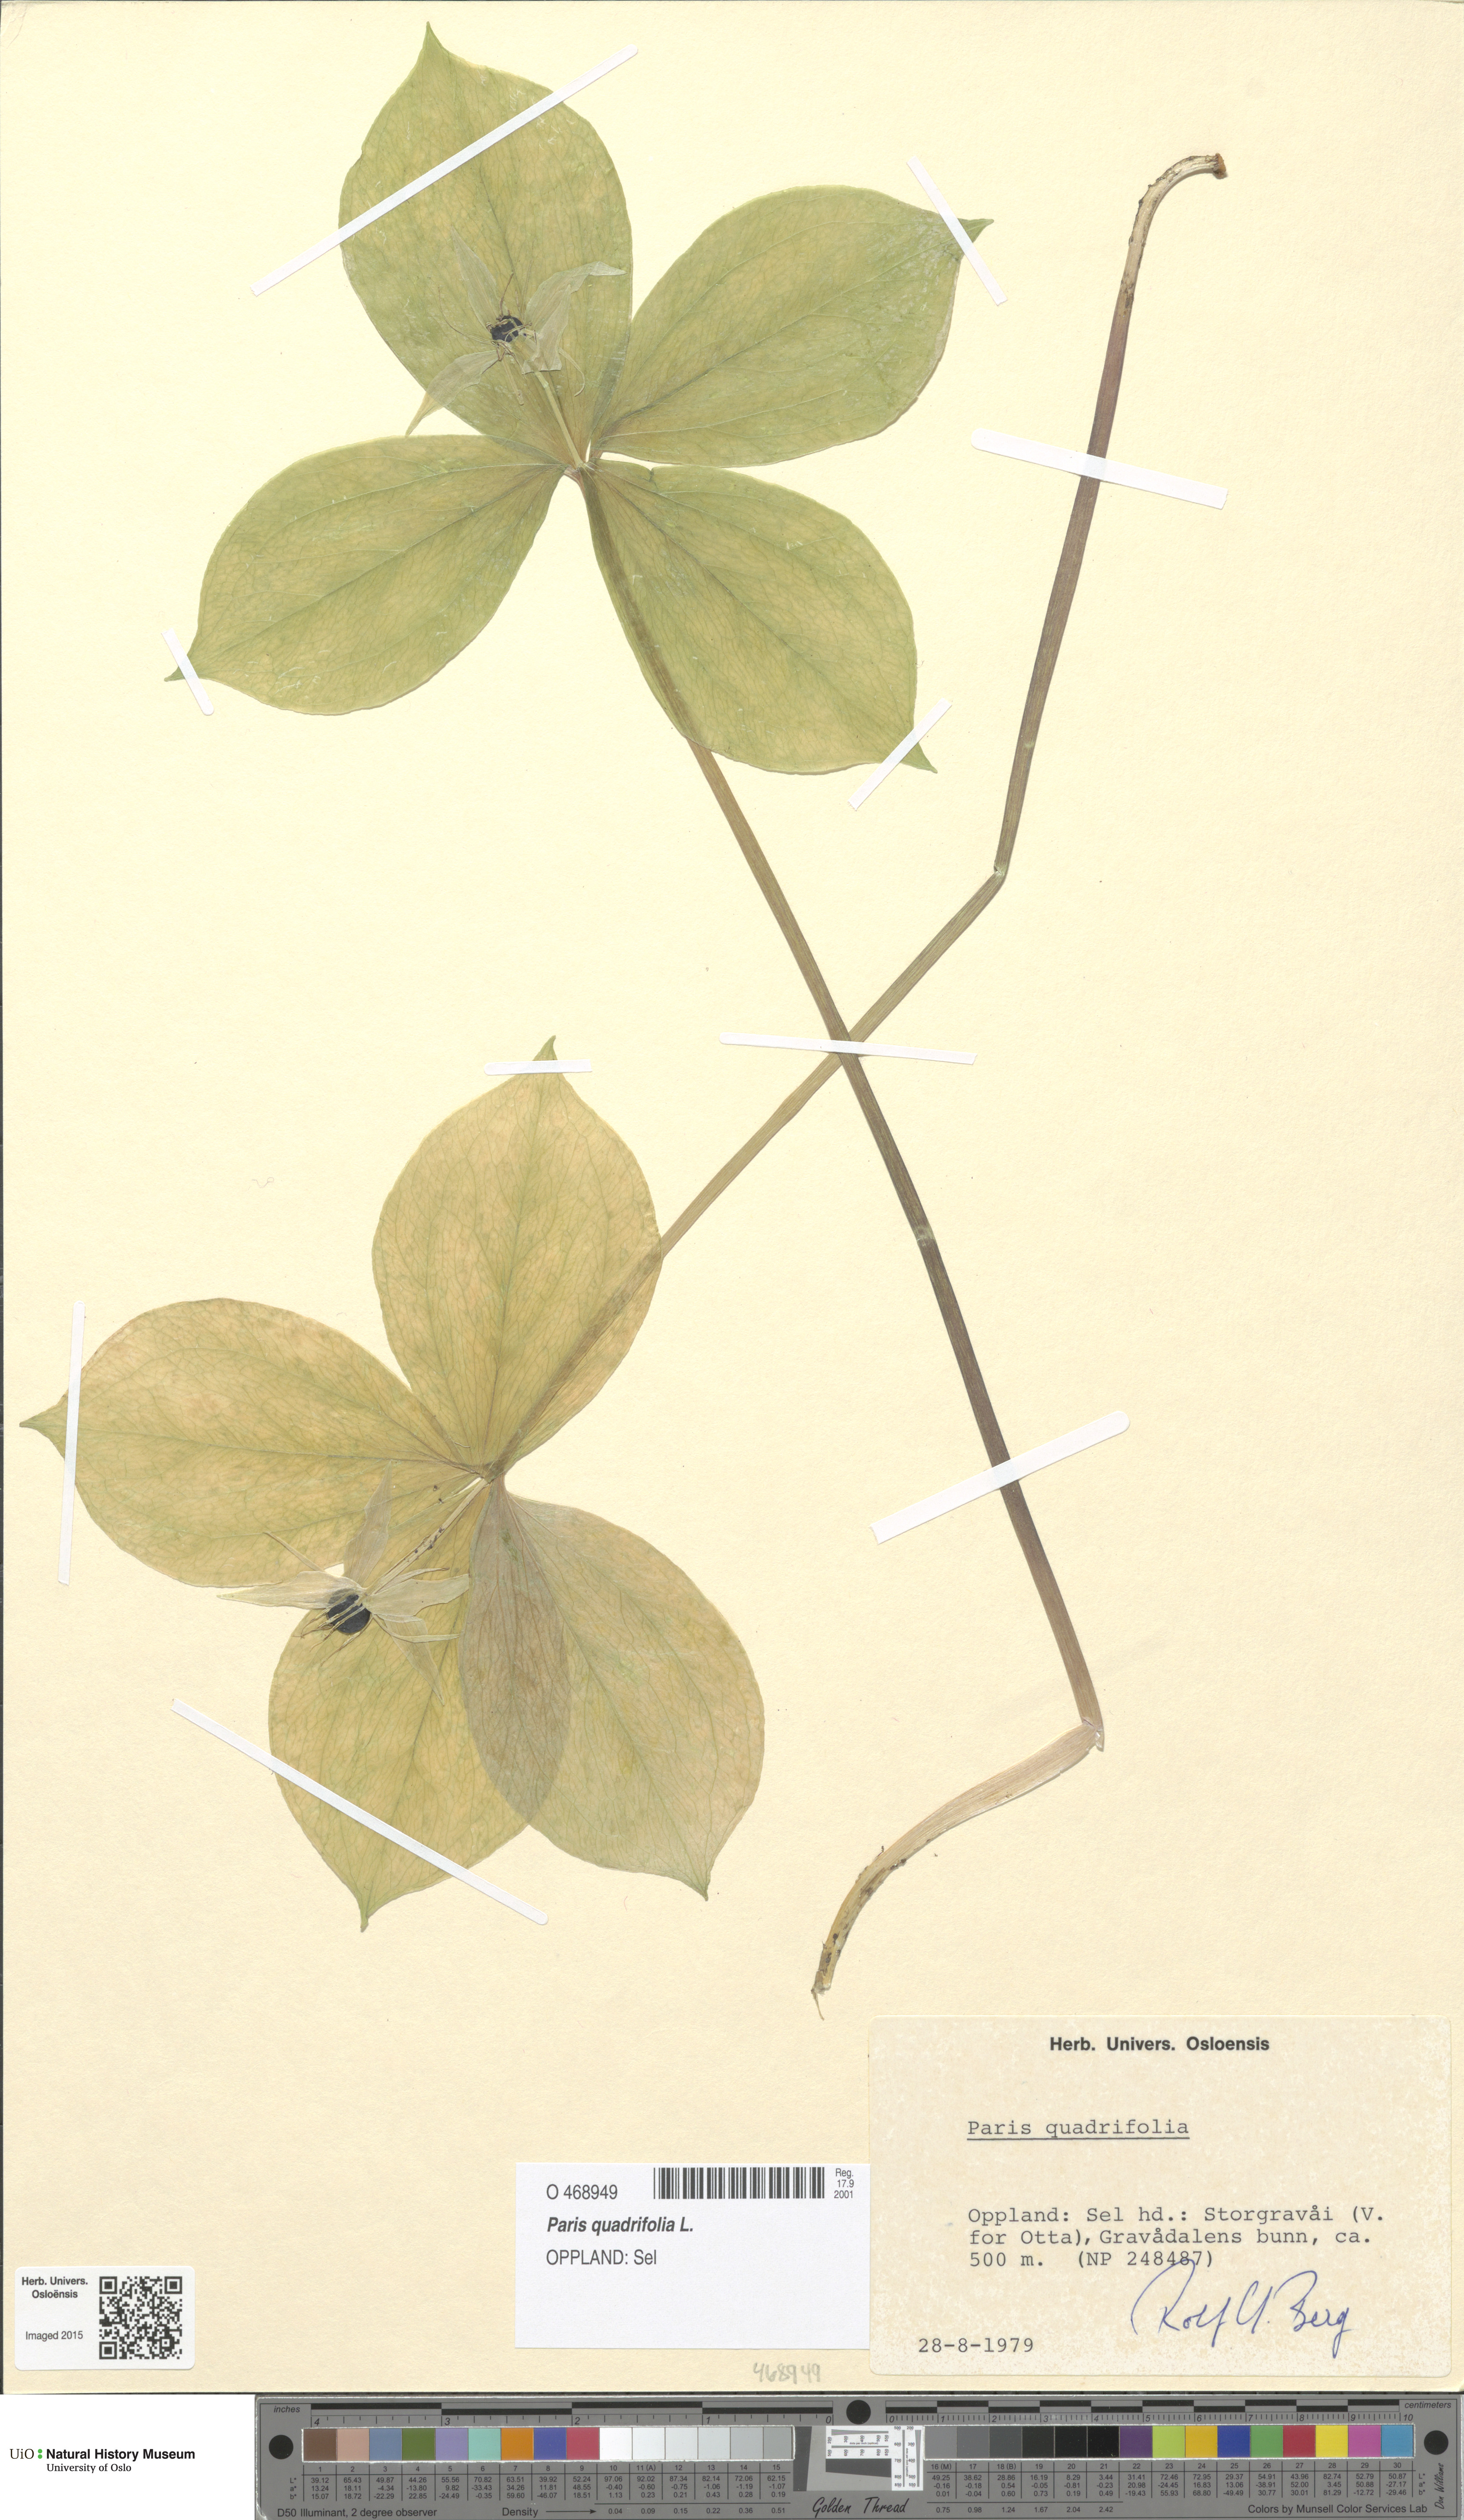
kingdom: Plantae
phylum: Tracheophyta
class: Liliopsida
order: Liliales
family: Melanthiaceae
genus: Paris
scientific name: Paris quadrifolia
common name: Herb-paris
